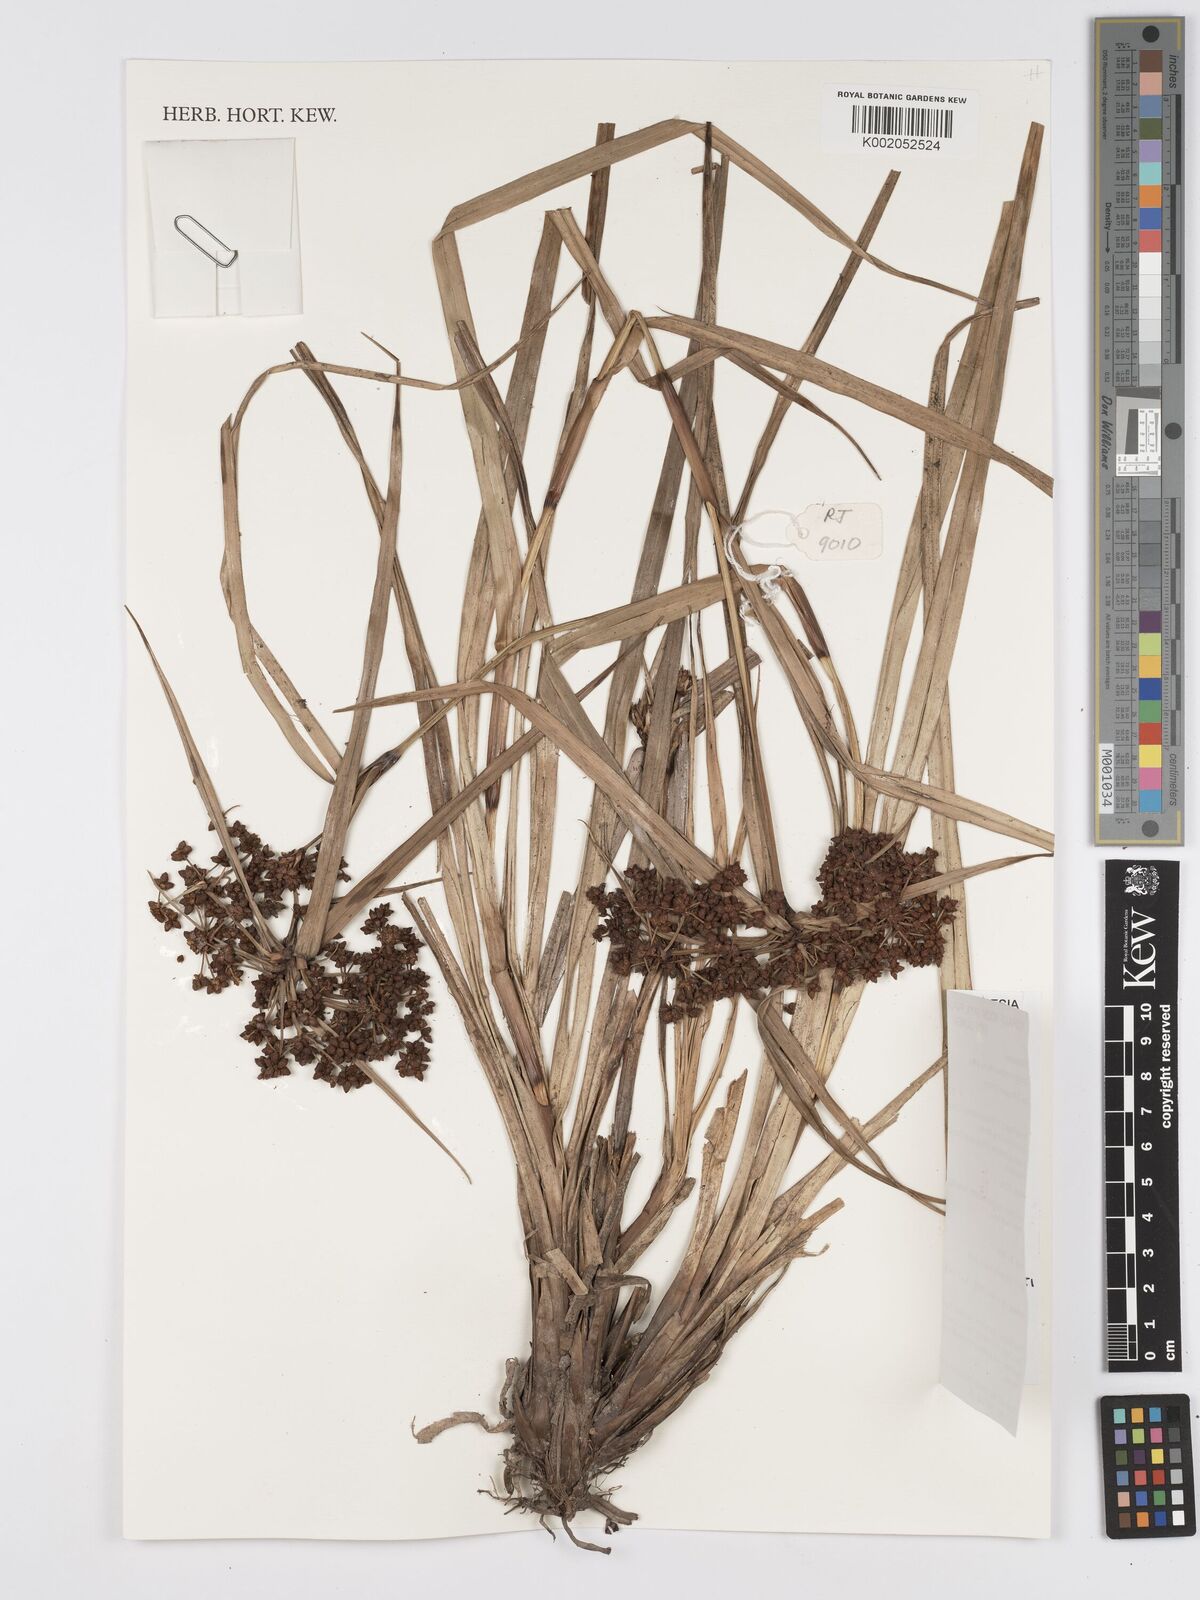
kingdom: Plantae
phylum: Tracheophyta
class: Liliopsida
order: Poales
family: Cyperaceae
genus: Scirpus
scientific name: Scirpus ternatanus
